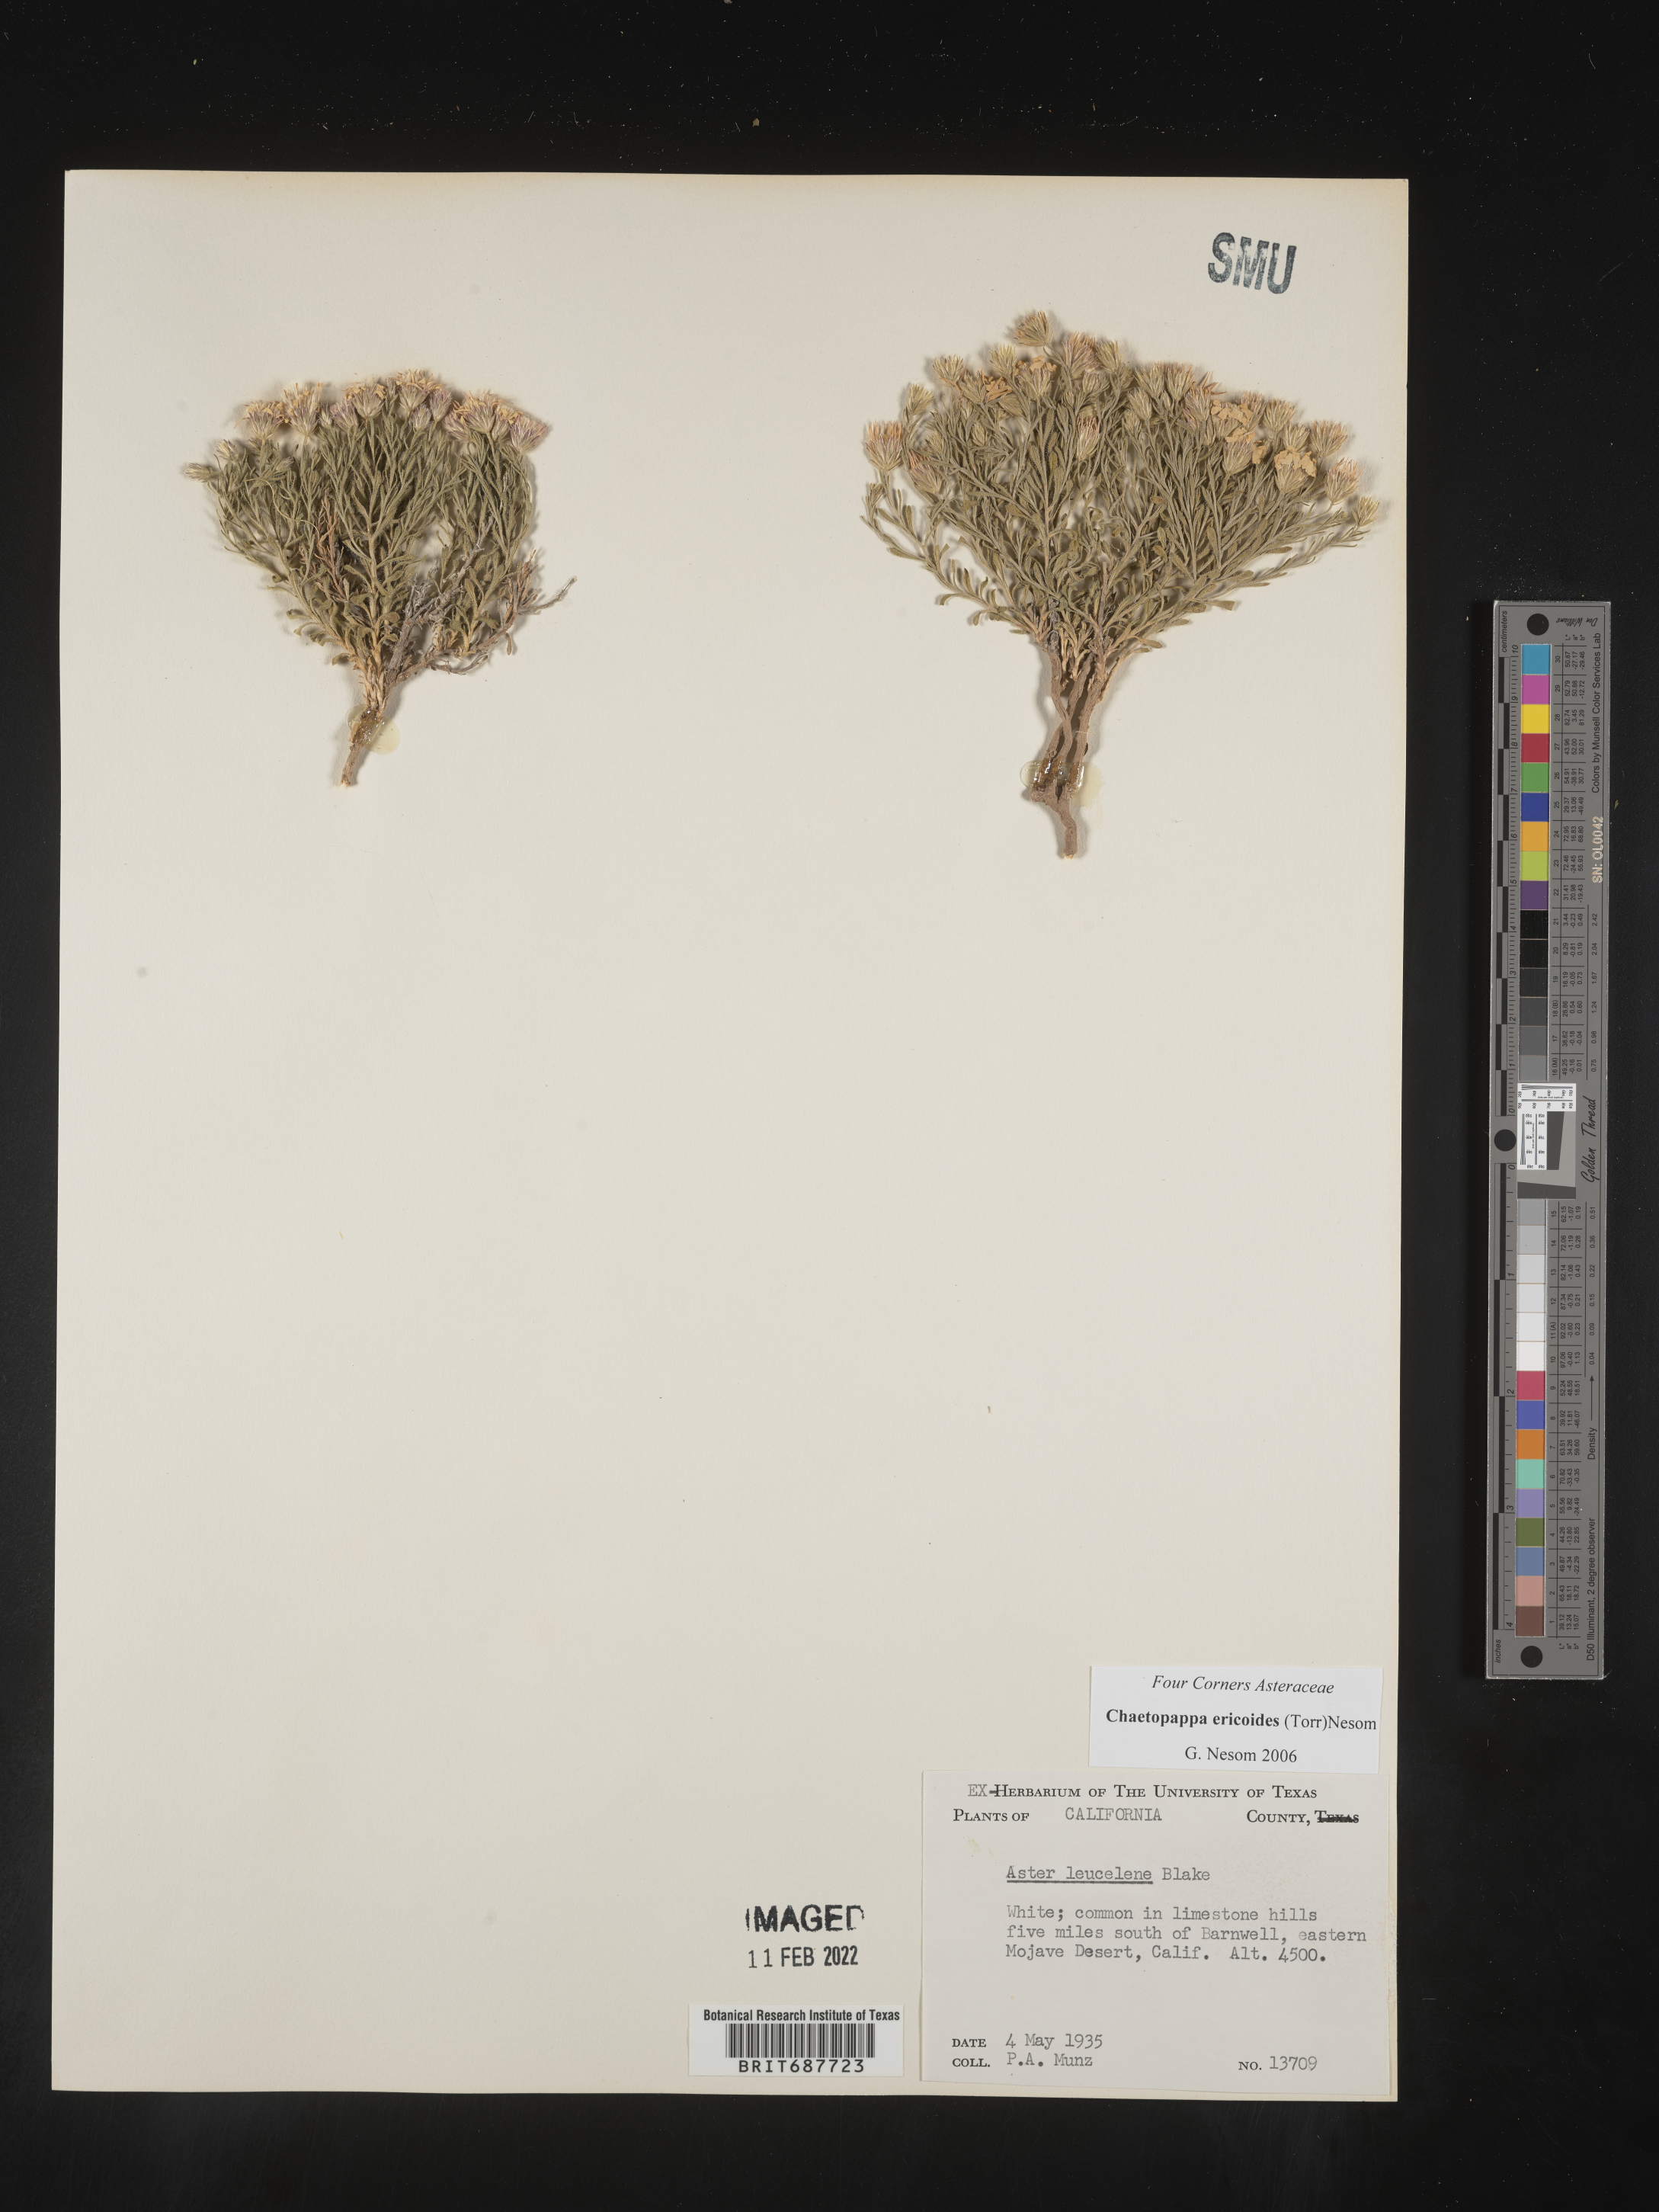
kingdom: Plantae
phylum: Tracheophyta
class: Magnoliopsida
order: Asterales
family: Asteraceae
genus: Chaetopappa
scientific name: Chaetopappa ericoides
